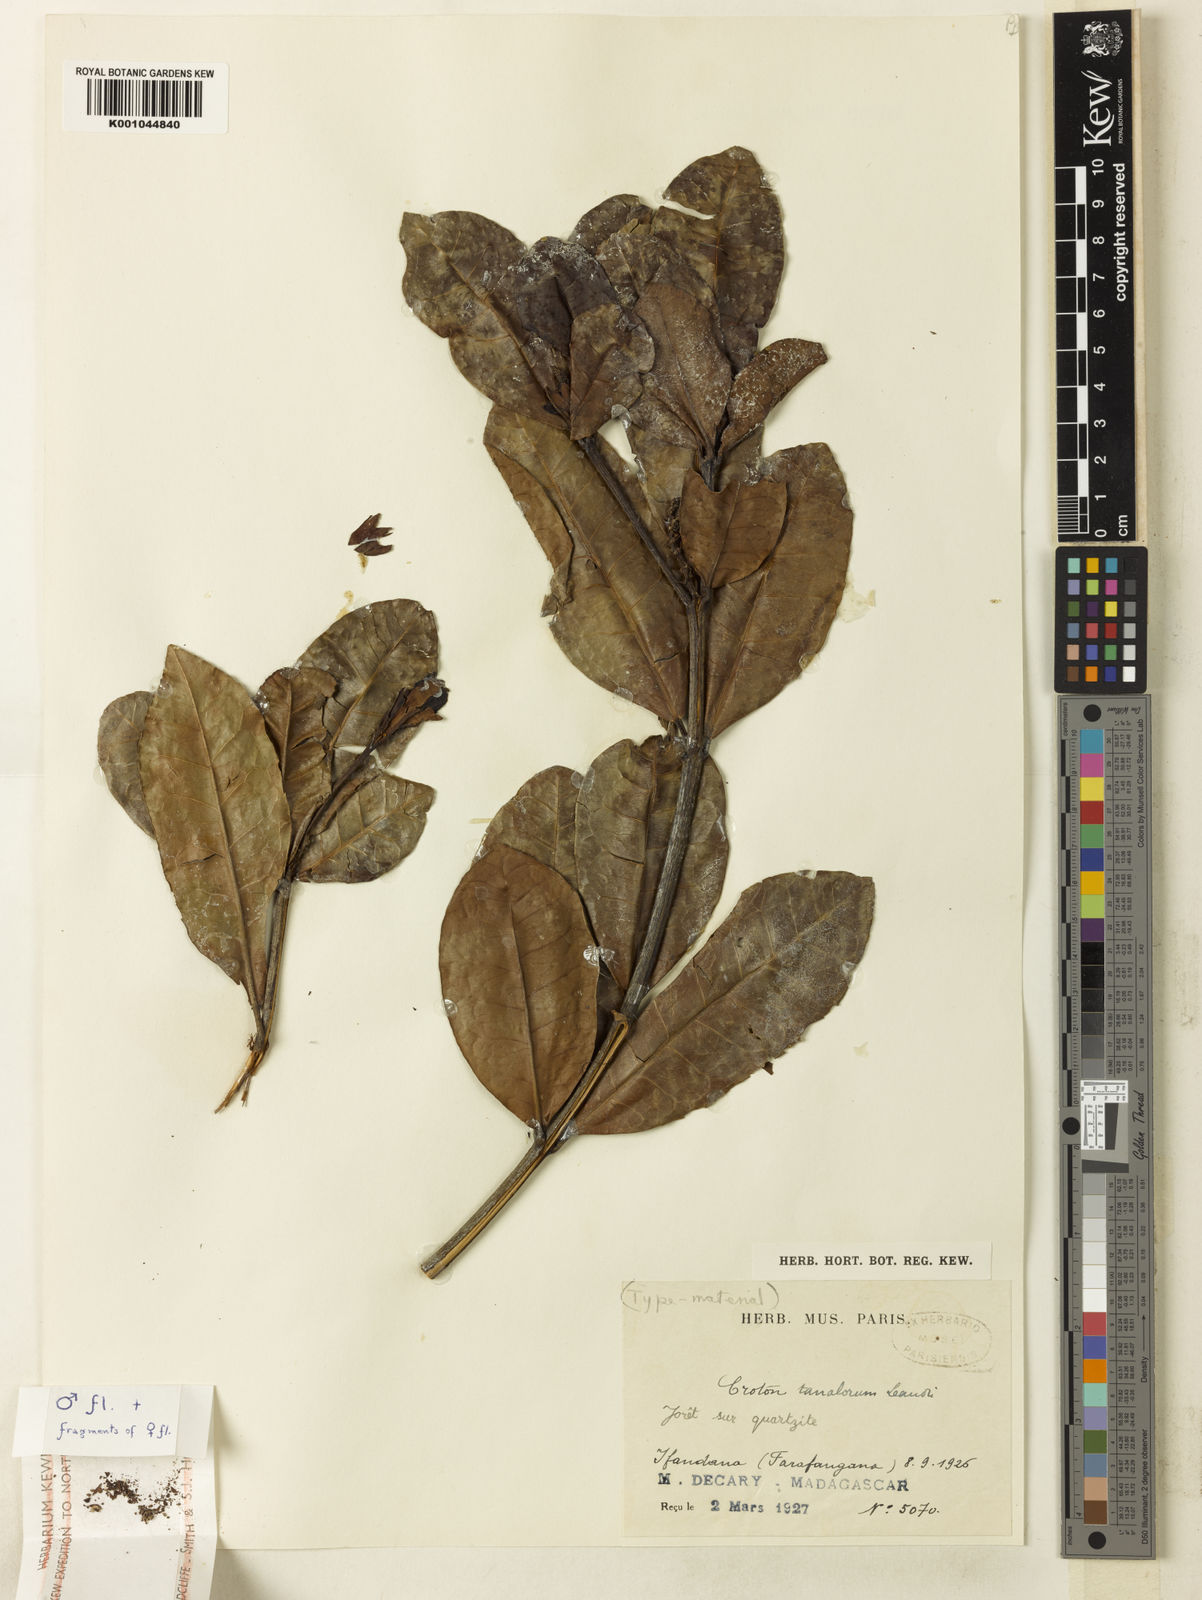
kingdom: Plantae
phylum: Tracheophyta
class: Magnoliopsida
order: Malpighiales
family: Euphorbiaceae
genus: Croton
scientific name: Croton tanalorum
